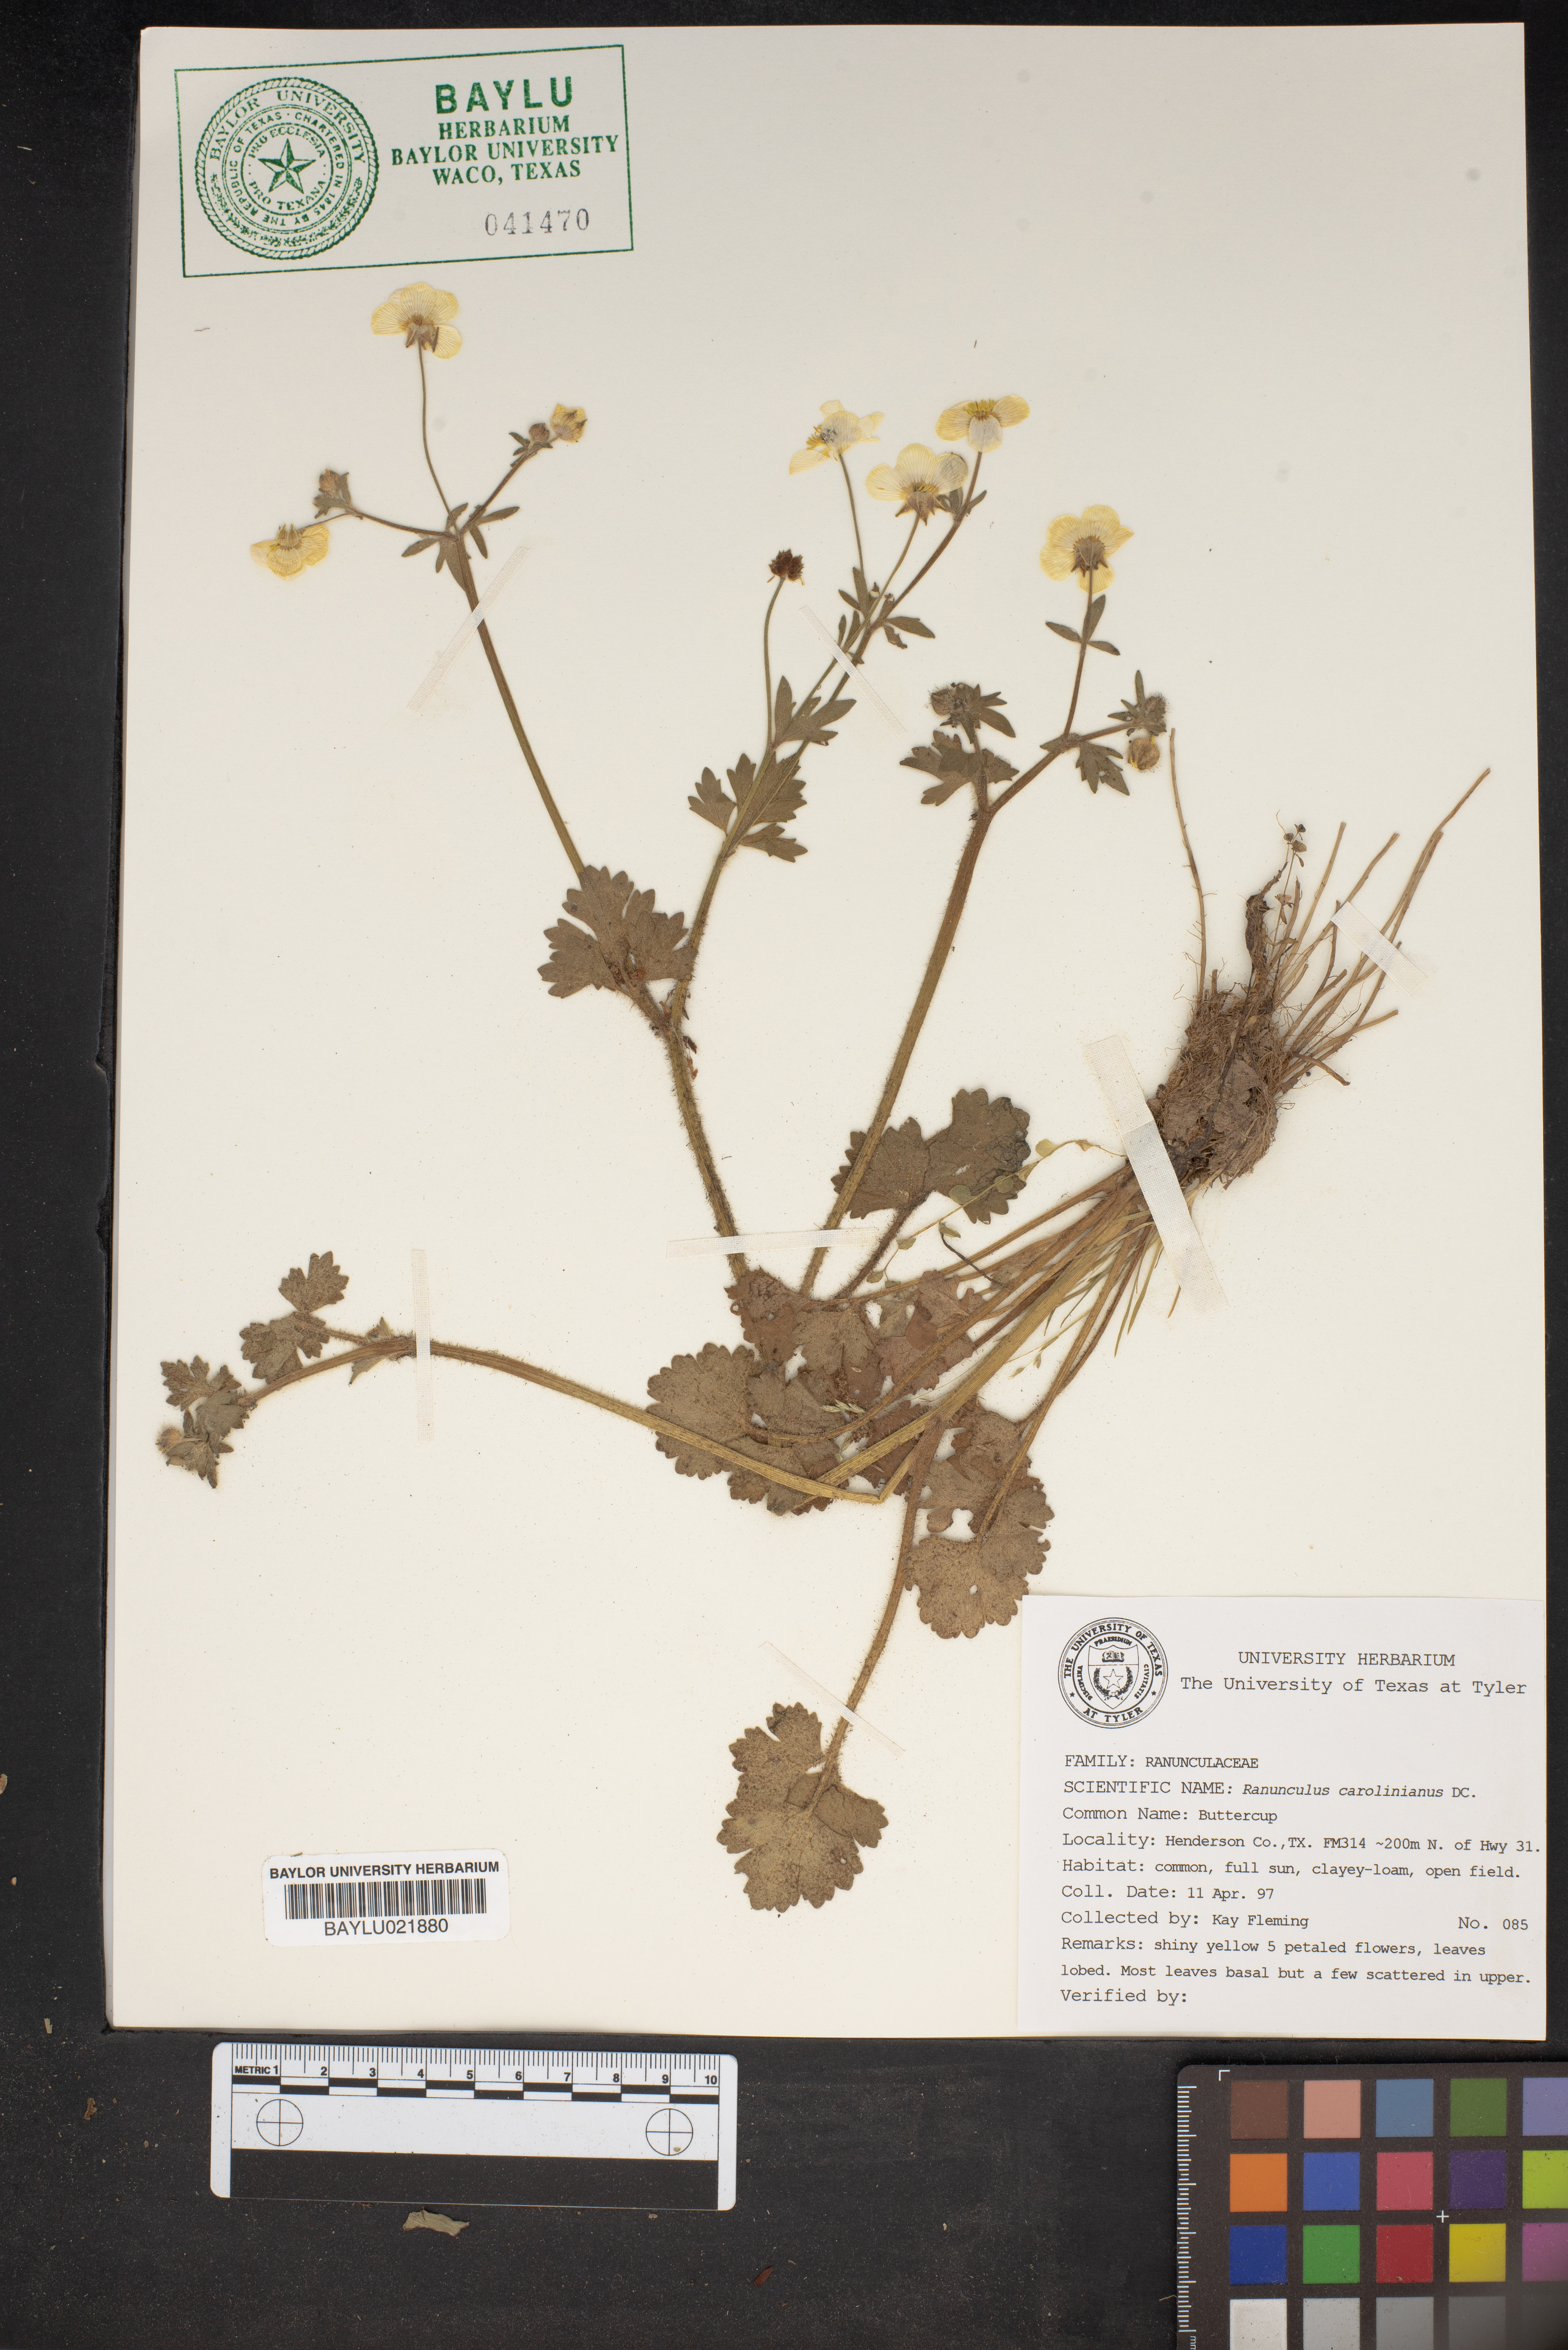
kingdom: Plantae
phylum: Tracheophyta
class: Magnoliopsida
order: Ranunculales
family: Ranunculaceae
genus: Ranunculus
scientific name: Ranunculus hispidus
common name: Bristly buttercup
